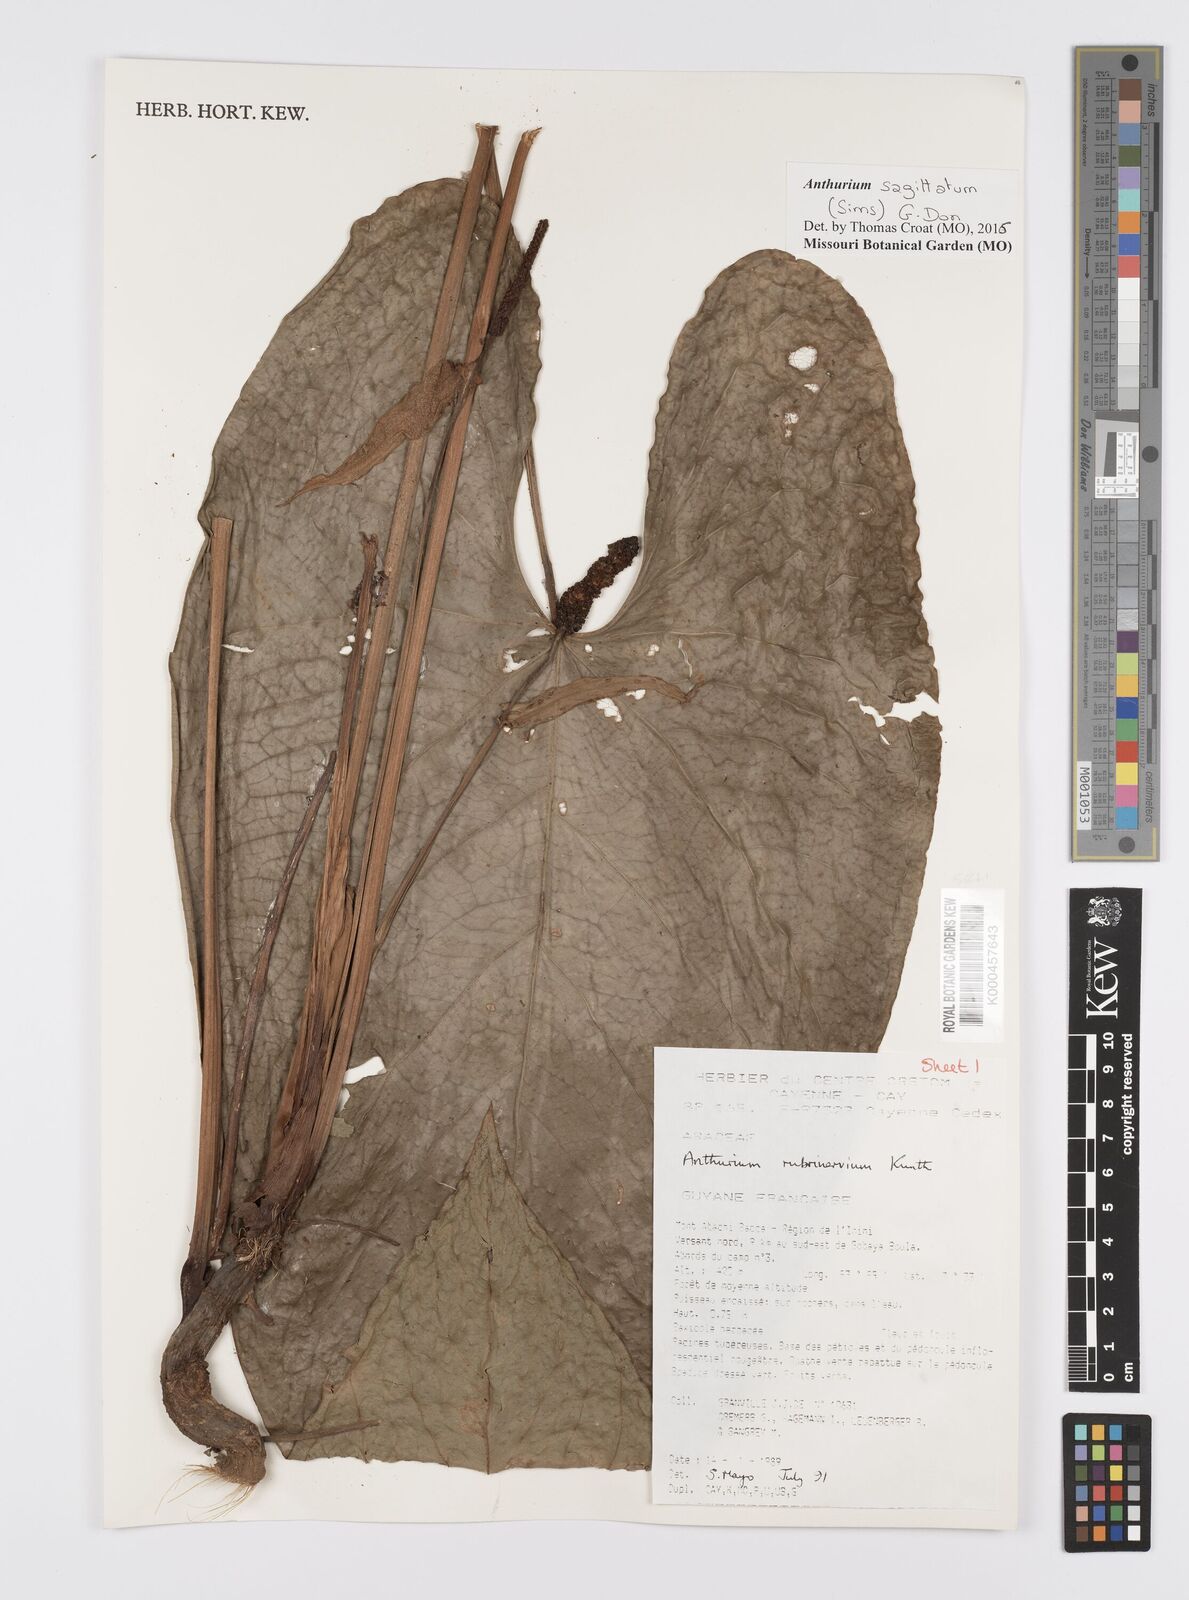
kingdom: Plantae
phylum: Tracheophyta
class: Liliopsida
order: Alismatales
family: Araceae
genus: Anthurium
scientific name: Anthurium sagittatum
